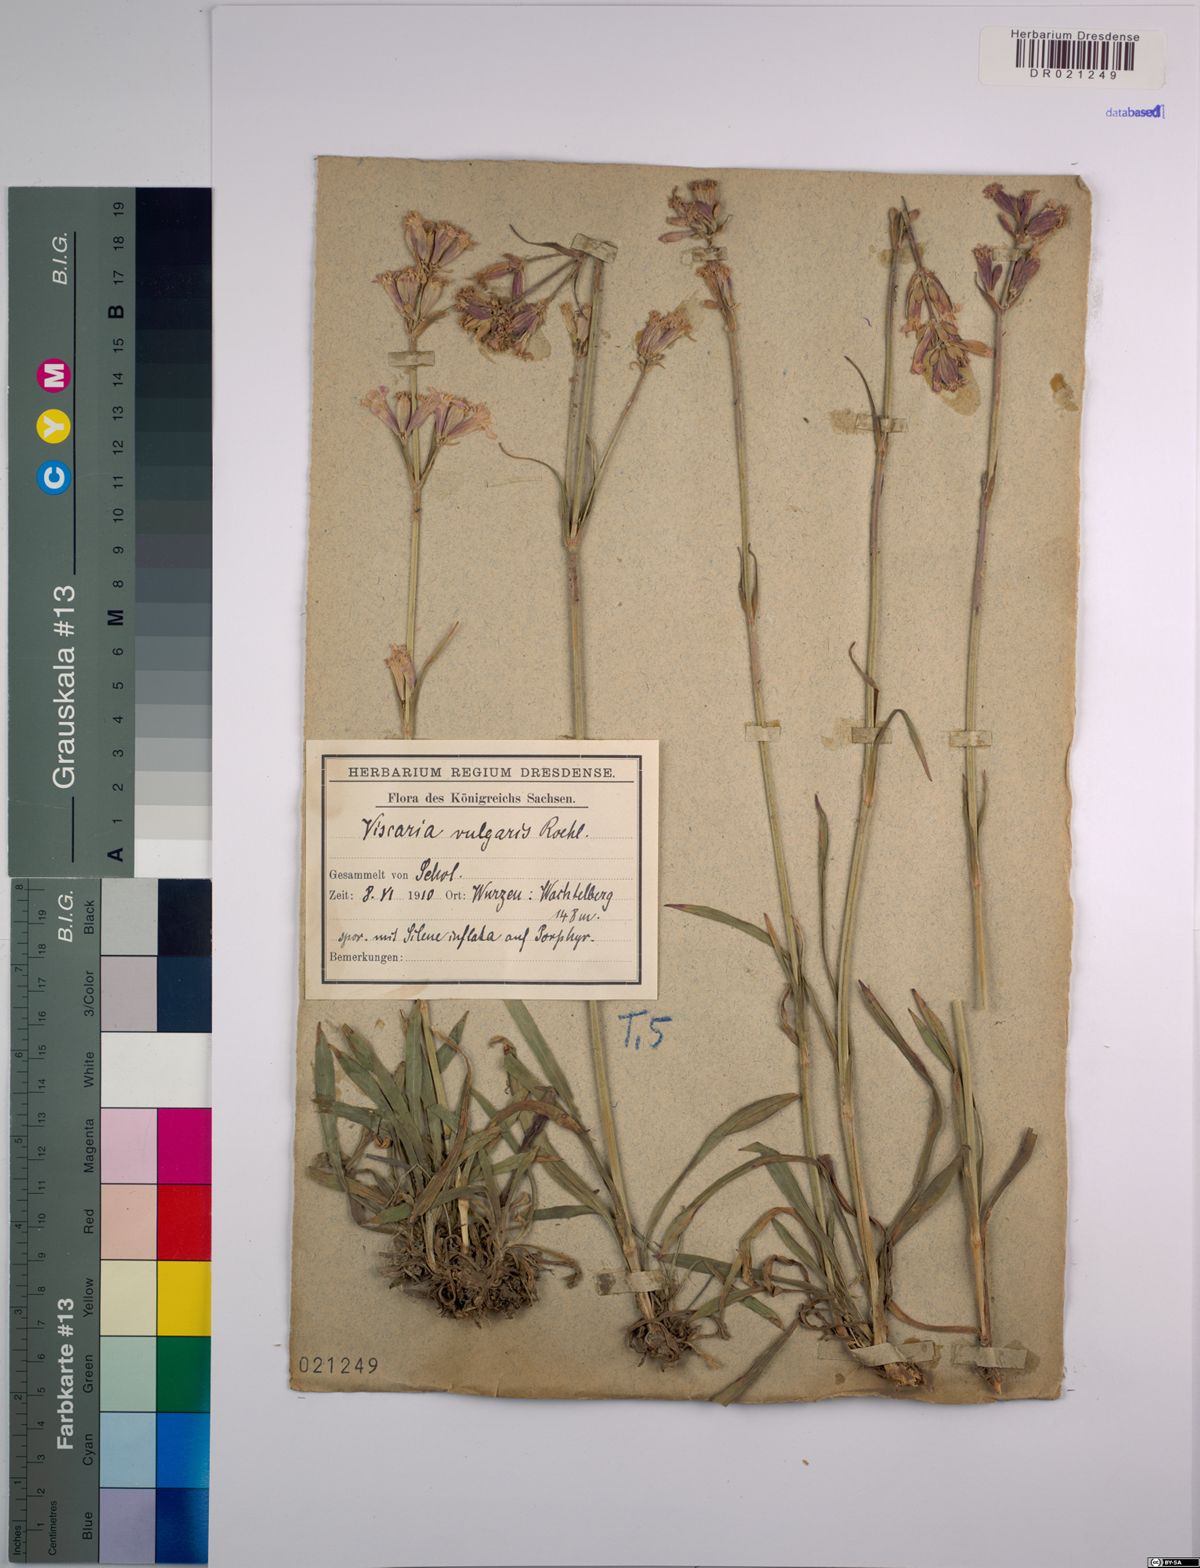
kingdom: Plantae
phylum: Tracheophyta
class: Magnoliopsida
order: Caryophyllales
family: Caryophyllaceae
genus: Viscaria
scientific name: Viscaria vulgaris
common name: Clammy campion
